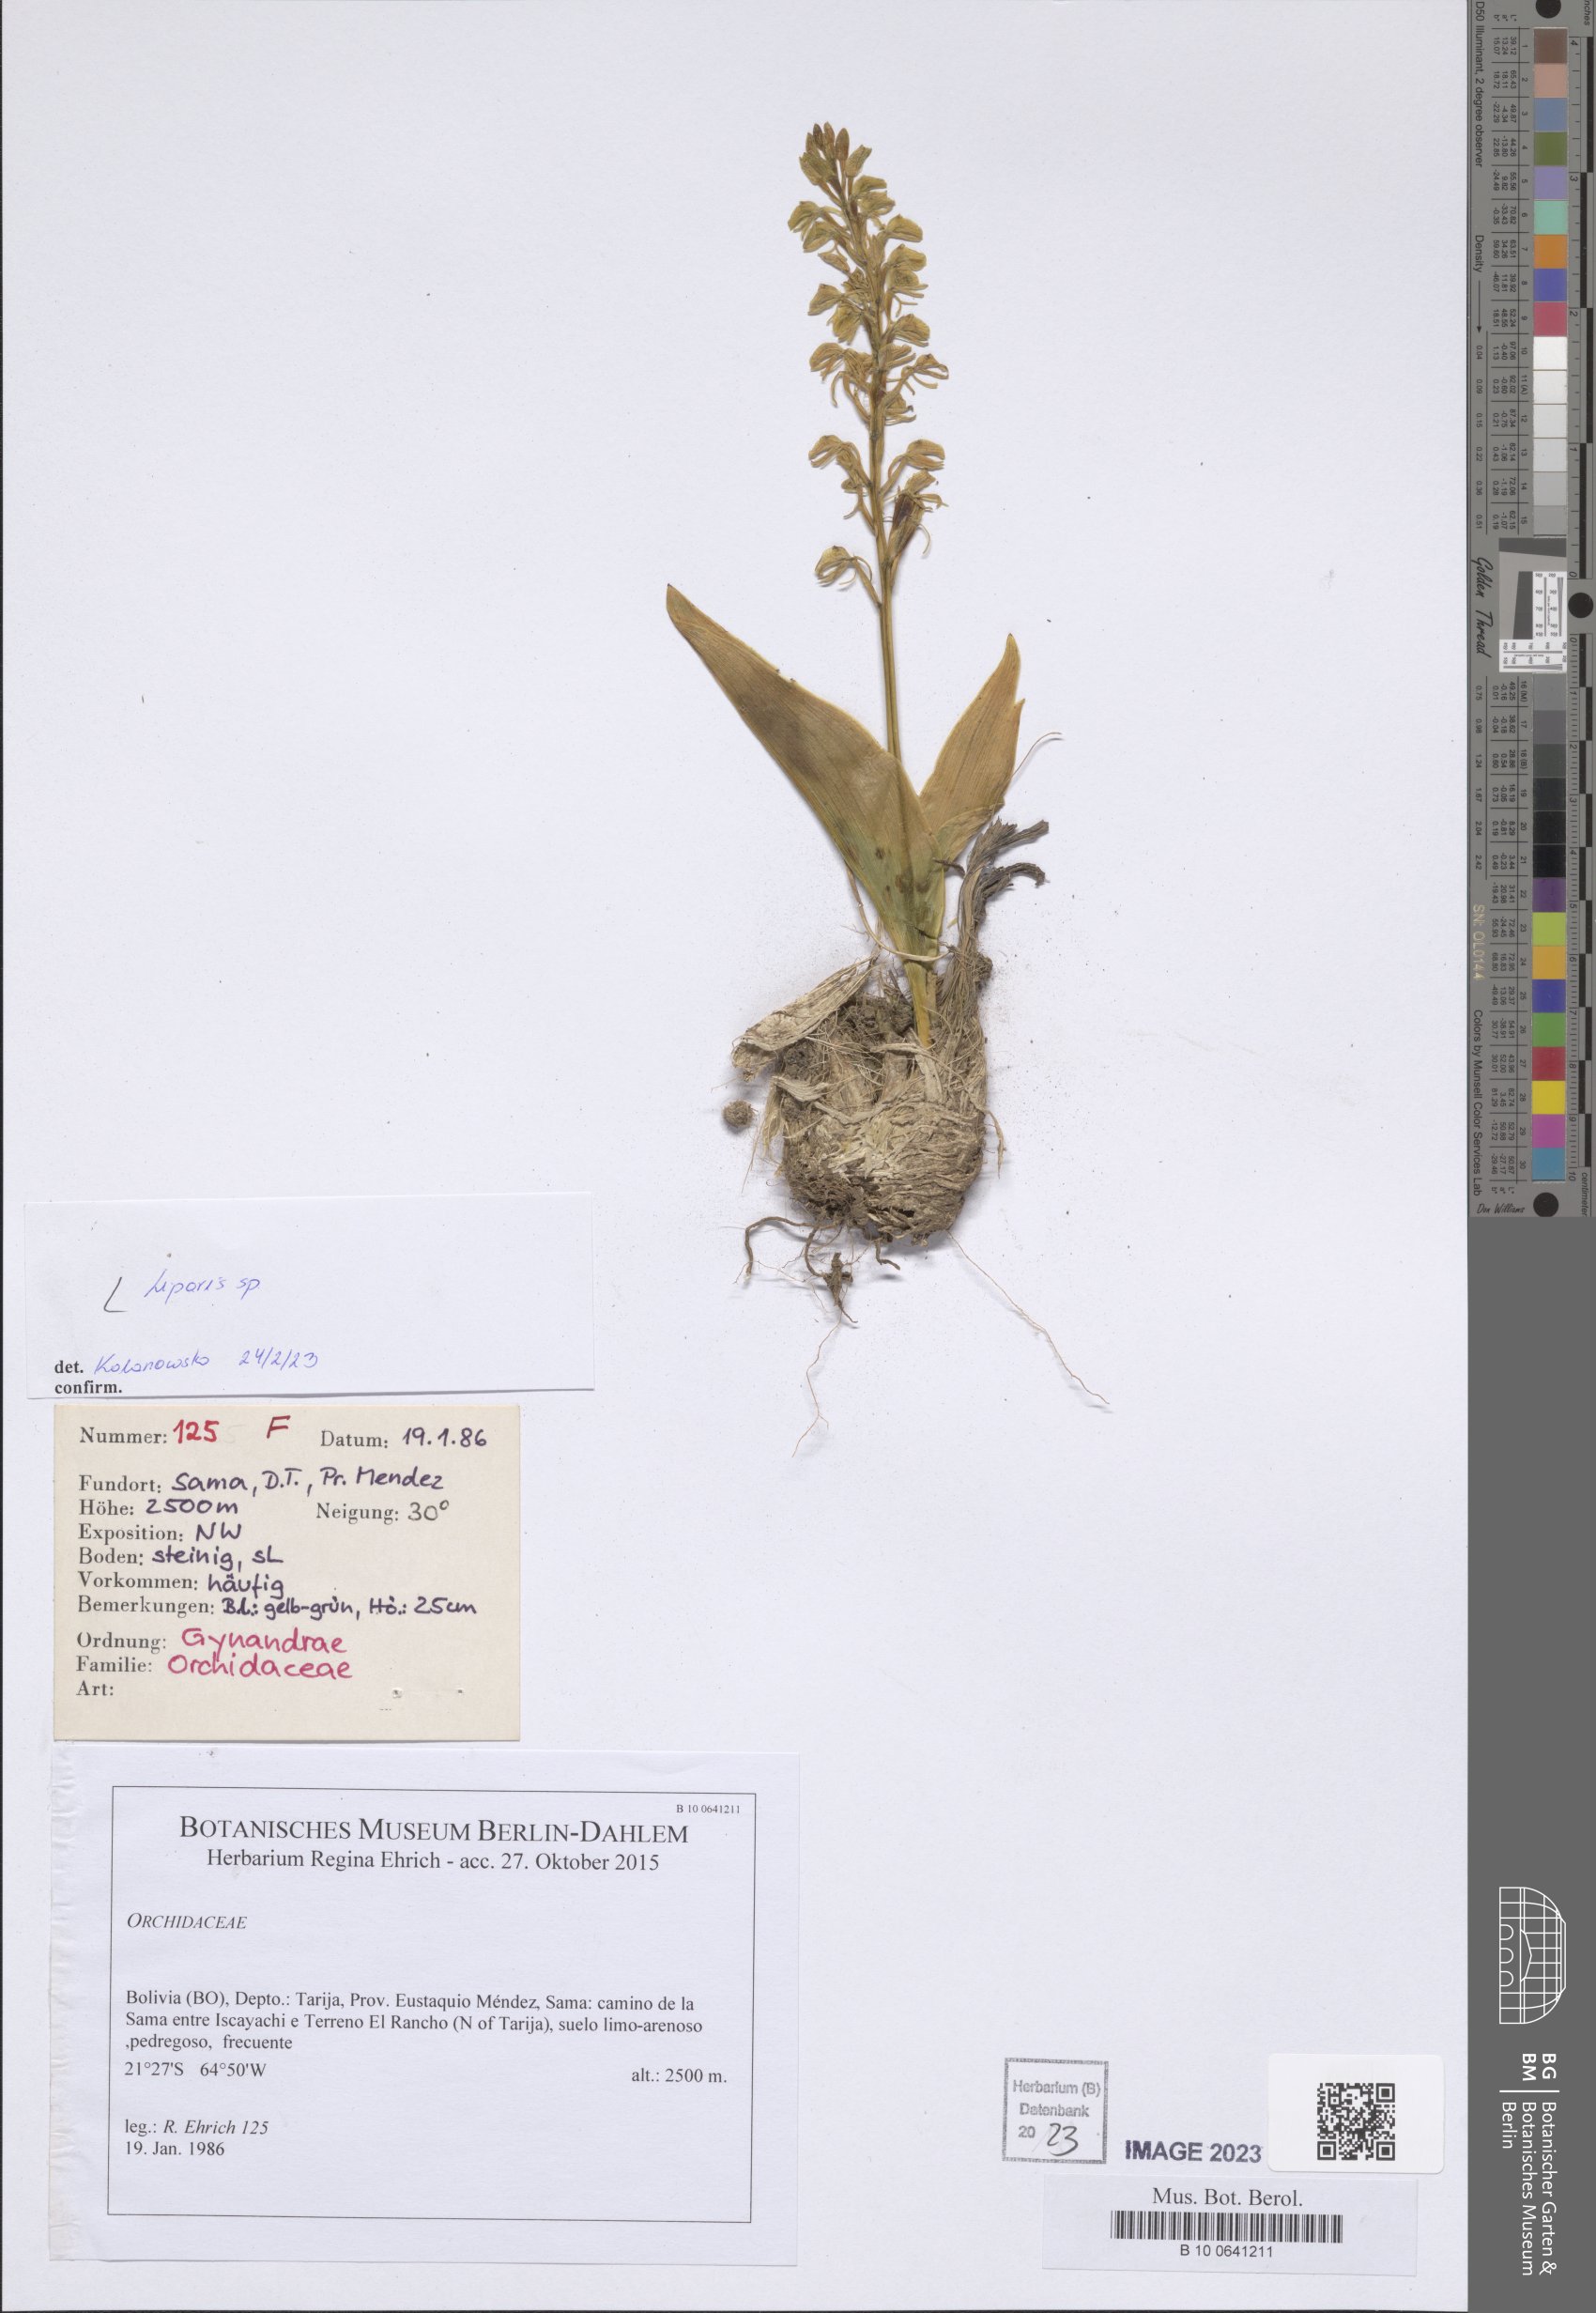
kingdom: Plantae
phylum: Tracheophyta
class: Liliopsida
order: Asparagales
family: Orchidaceae
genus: Liparis
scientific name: Liparis
